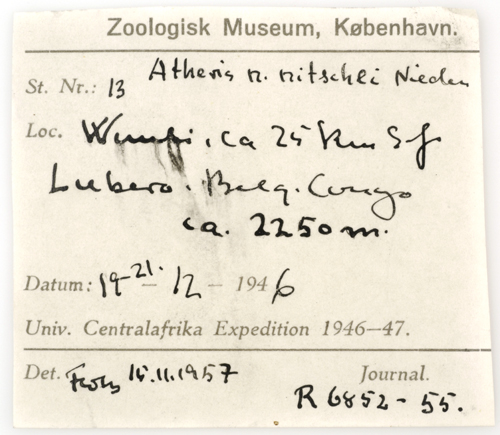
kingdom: Animalia
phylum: Chordata
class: Squamata
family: Viperidae
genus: Atheris
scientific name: Atheris nitschei
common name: Great lakes bush viper
